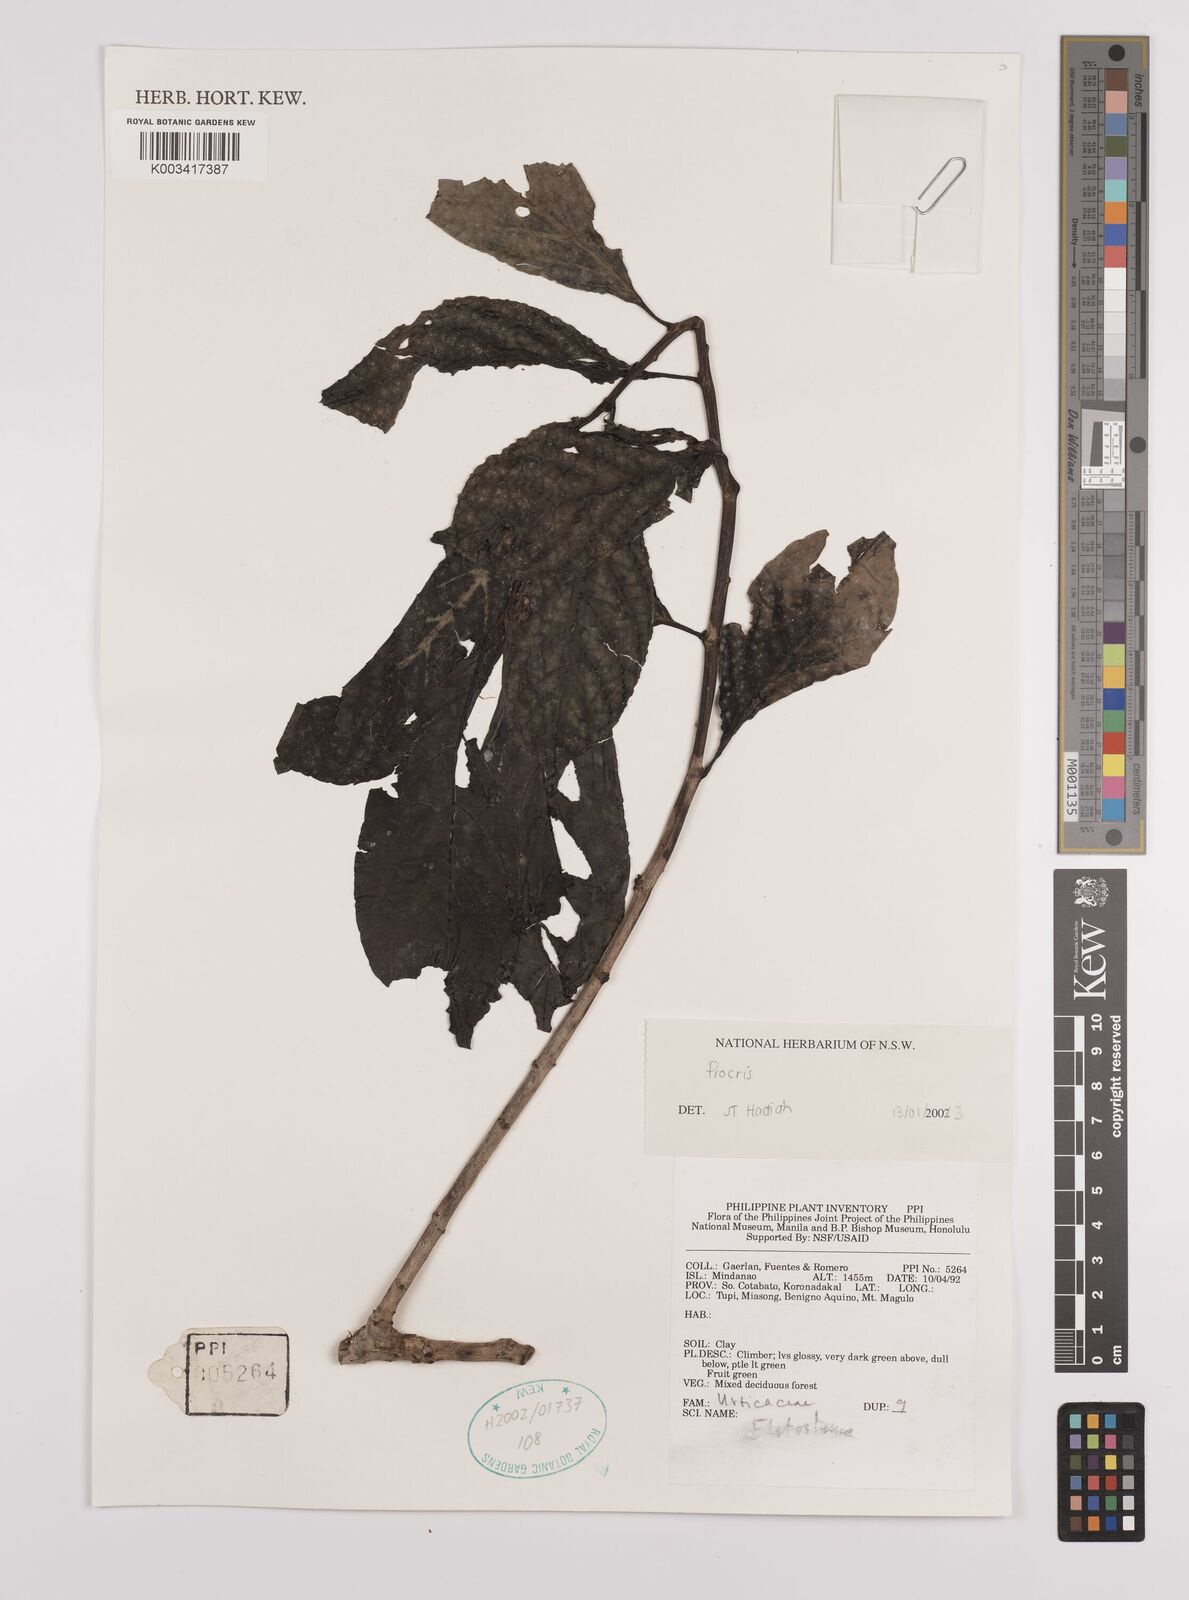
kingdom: Plantae
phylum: Tracheophyta
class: Magnoliopsida
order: Rosales
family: Urticaceae
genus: Procris
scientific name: Procris
